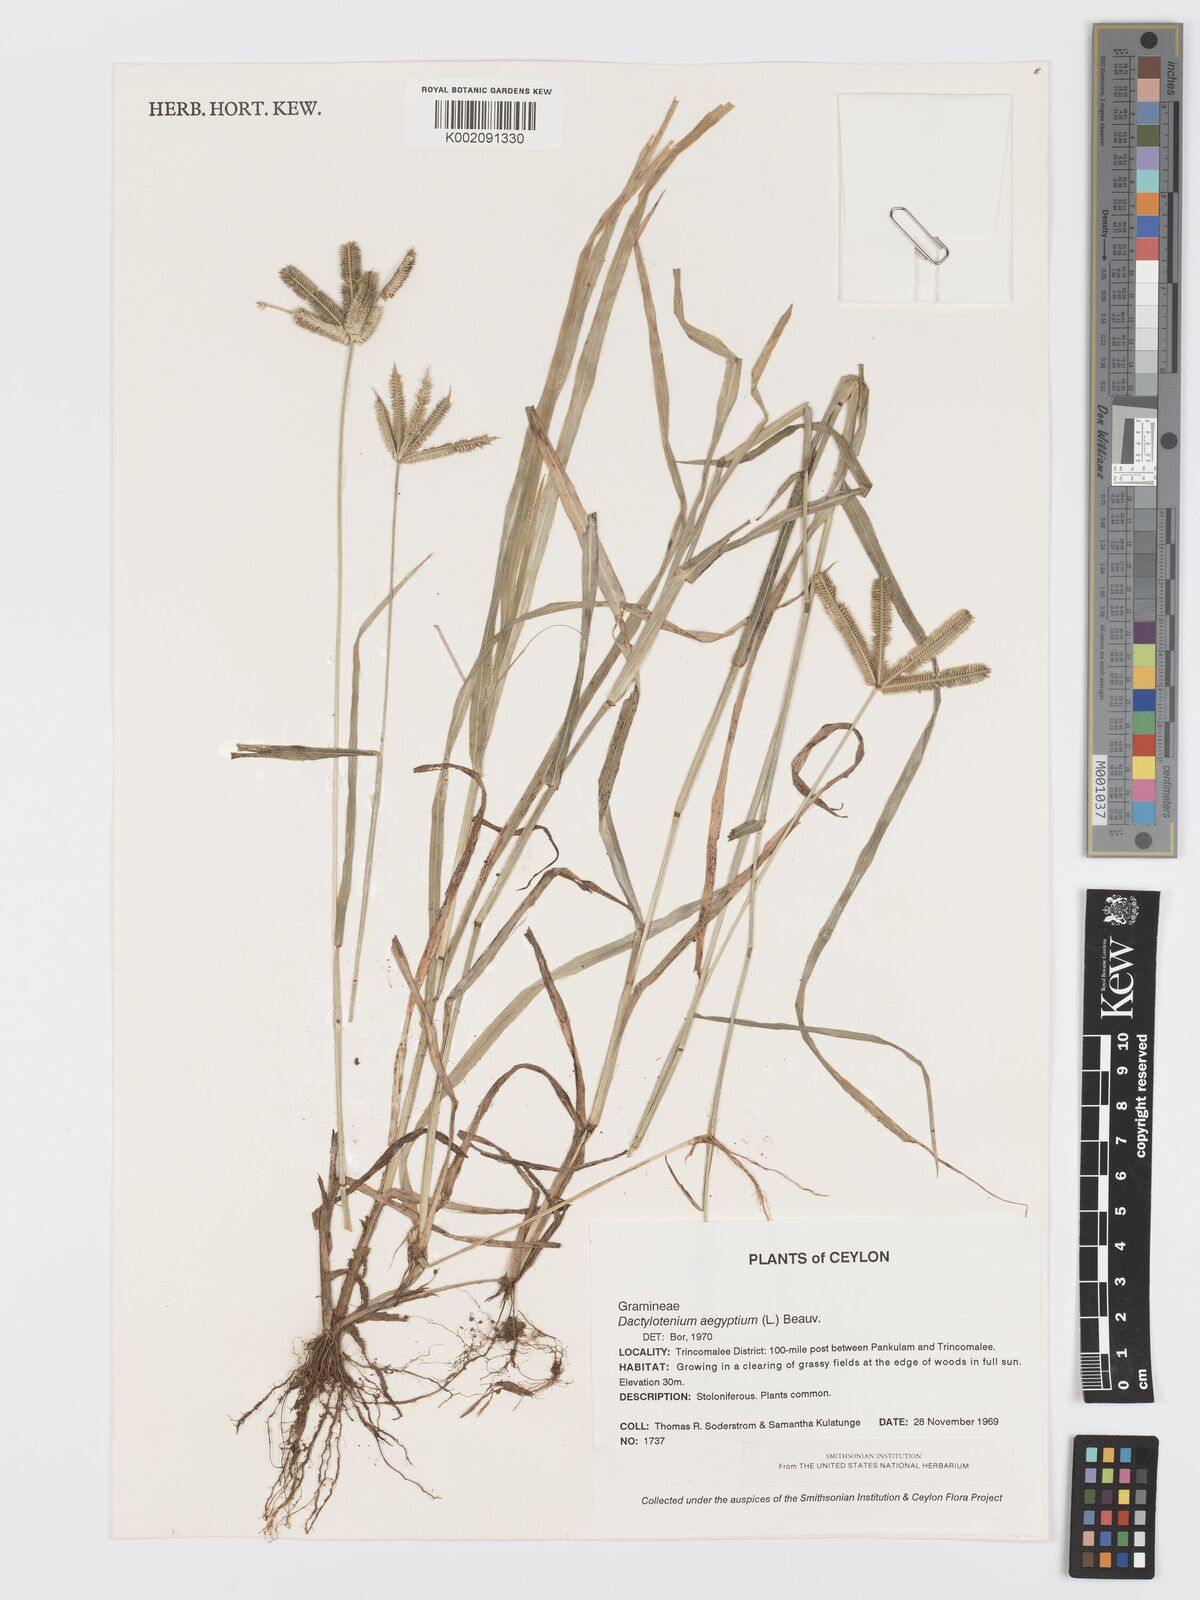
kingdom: Plantae
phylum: Tracheophyta
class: Liliopsida
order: Poales
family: Poaceae
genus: Dactyloctenium
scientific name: Dactyloctenium aegyptium
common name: Egyptian grass
